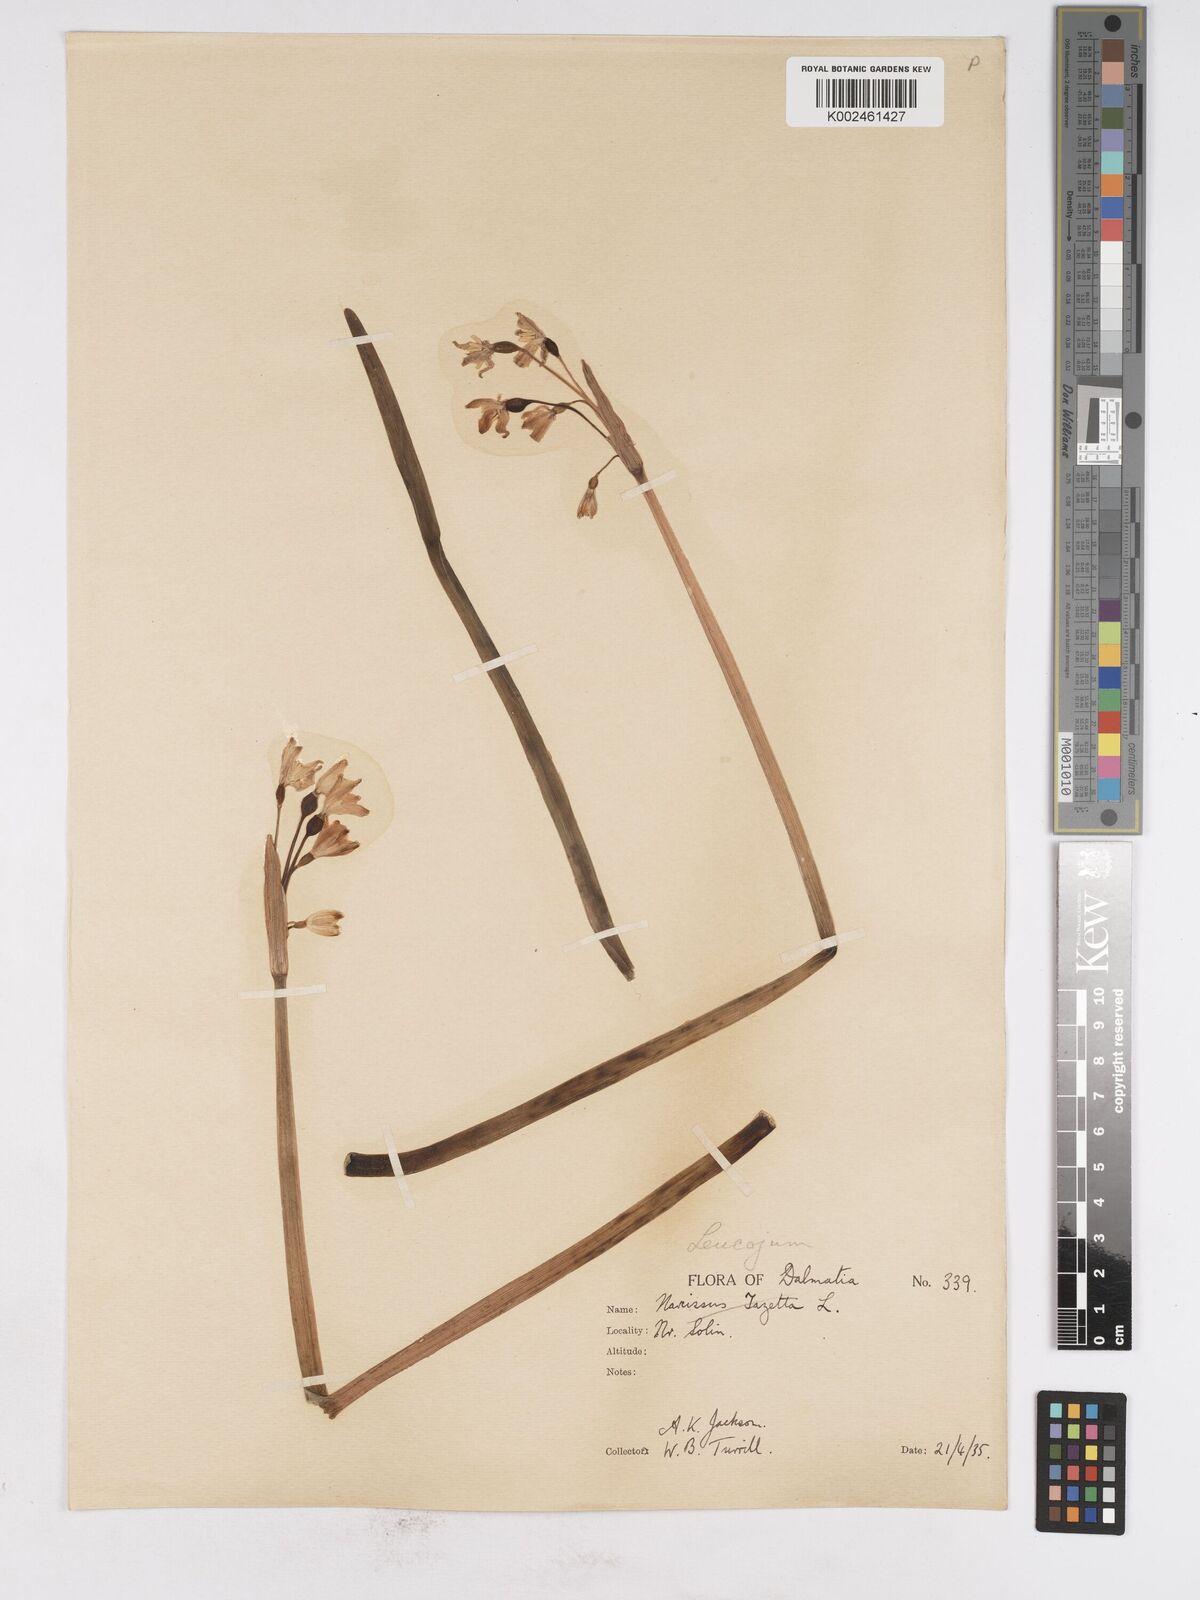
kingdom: Plantae
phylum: Tracheophyta
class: Liliopsida
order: Asparagales
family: Amaryllidaceae
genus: Leucojum
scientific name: Leucojum aestivum
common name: Summer snowflake
